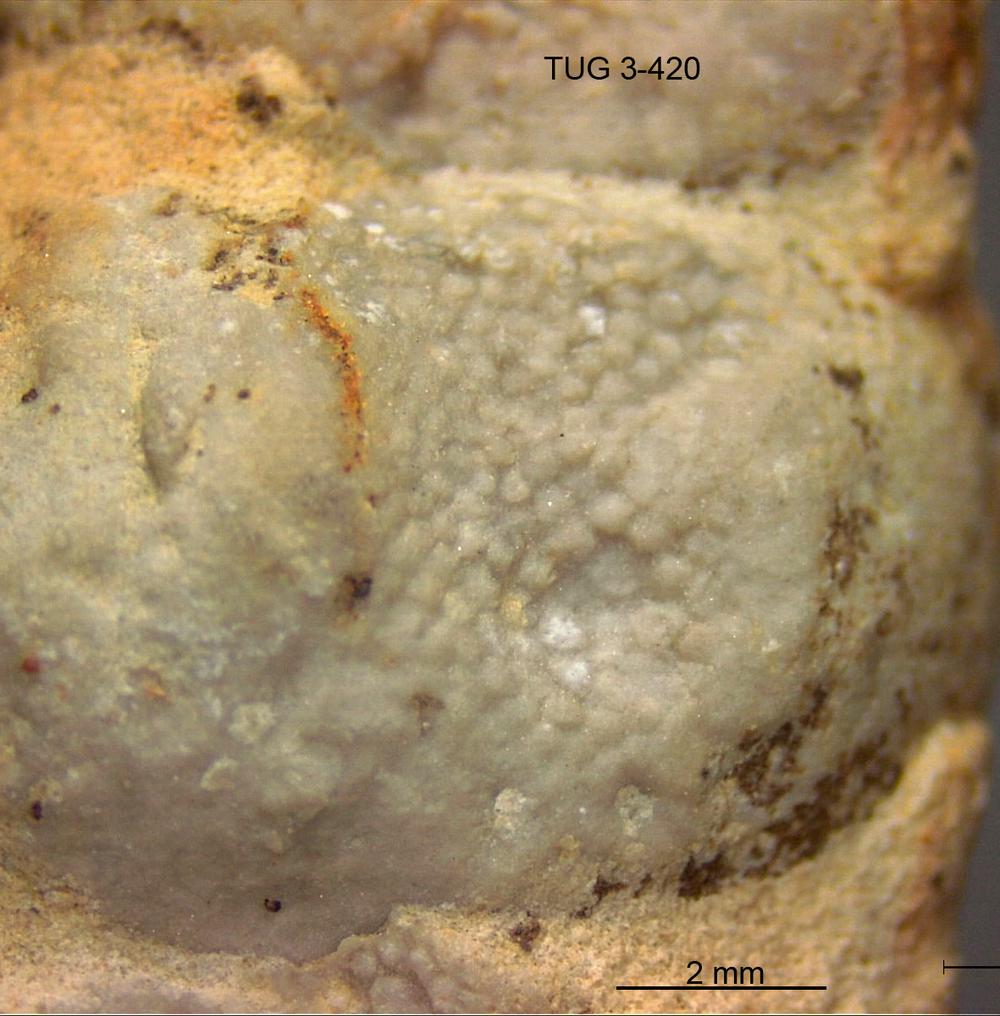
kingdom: Animalia
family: Coprulidae
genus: Coprulus
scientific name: Coprulus
